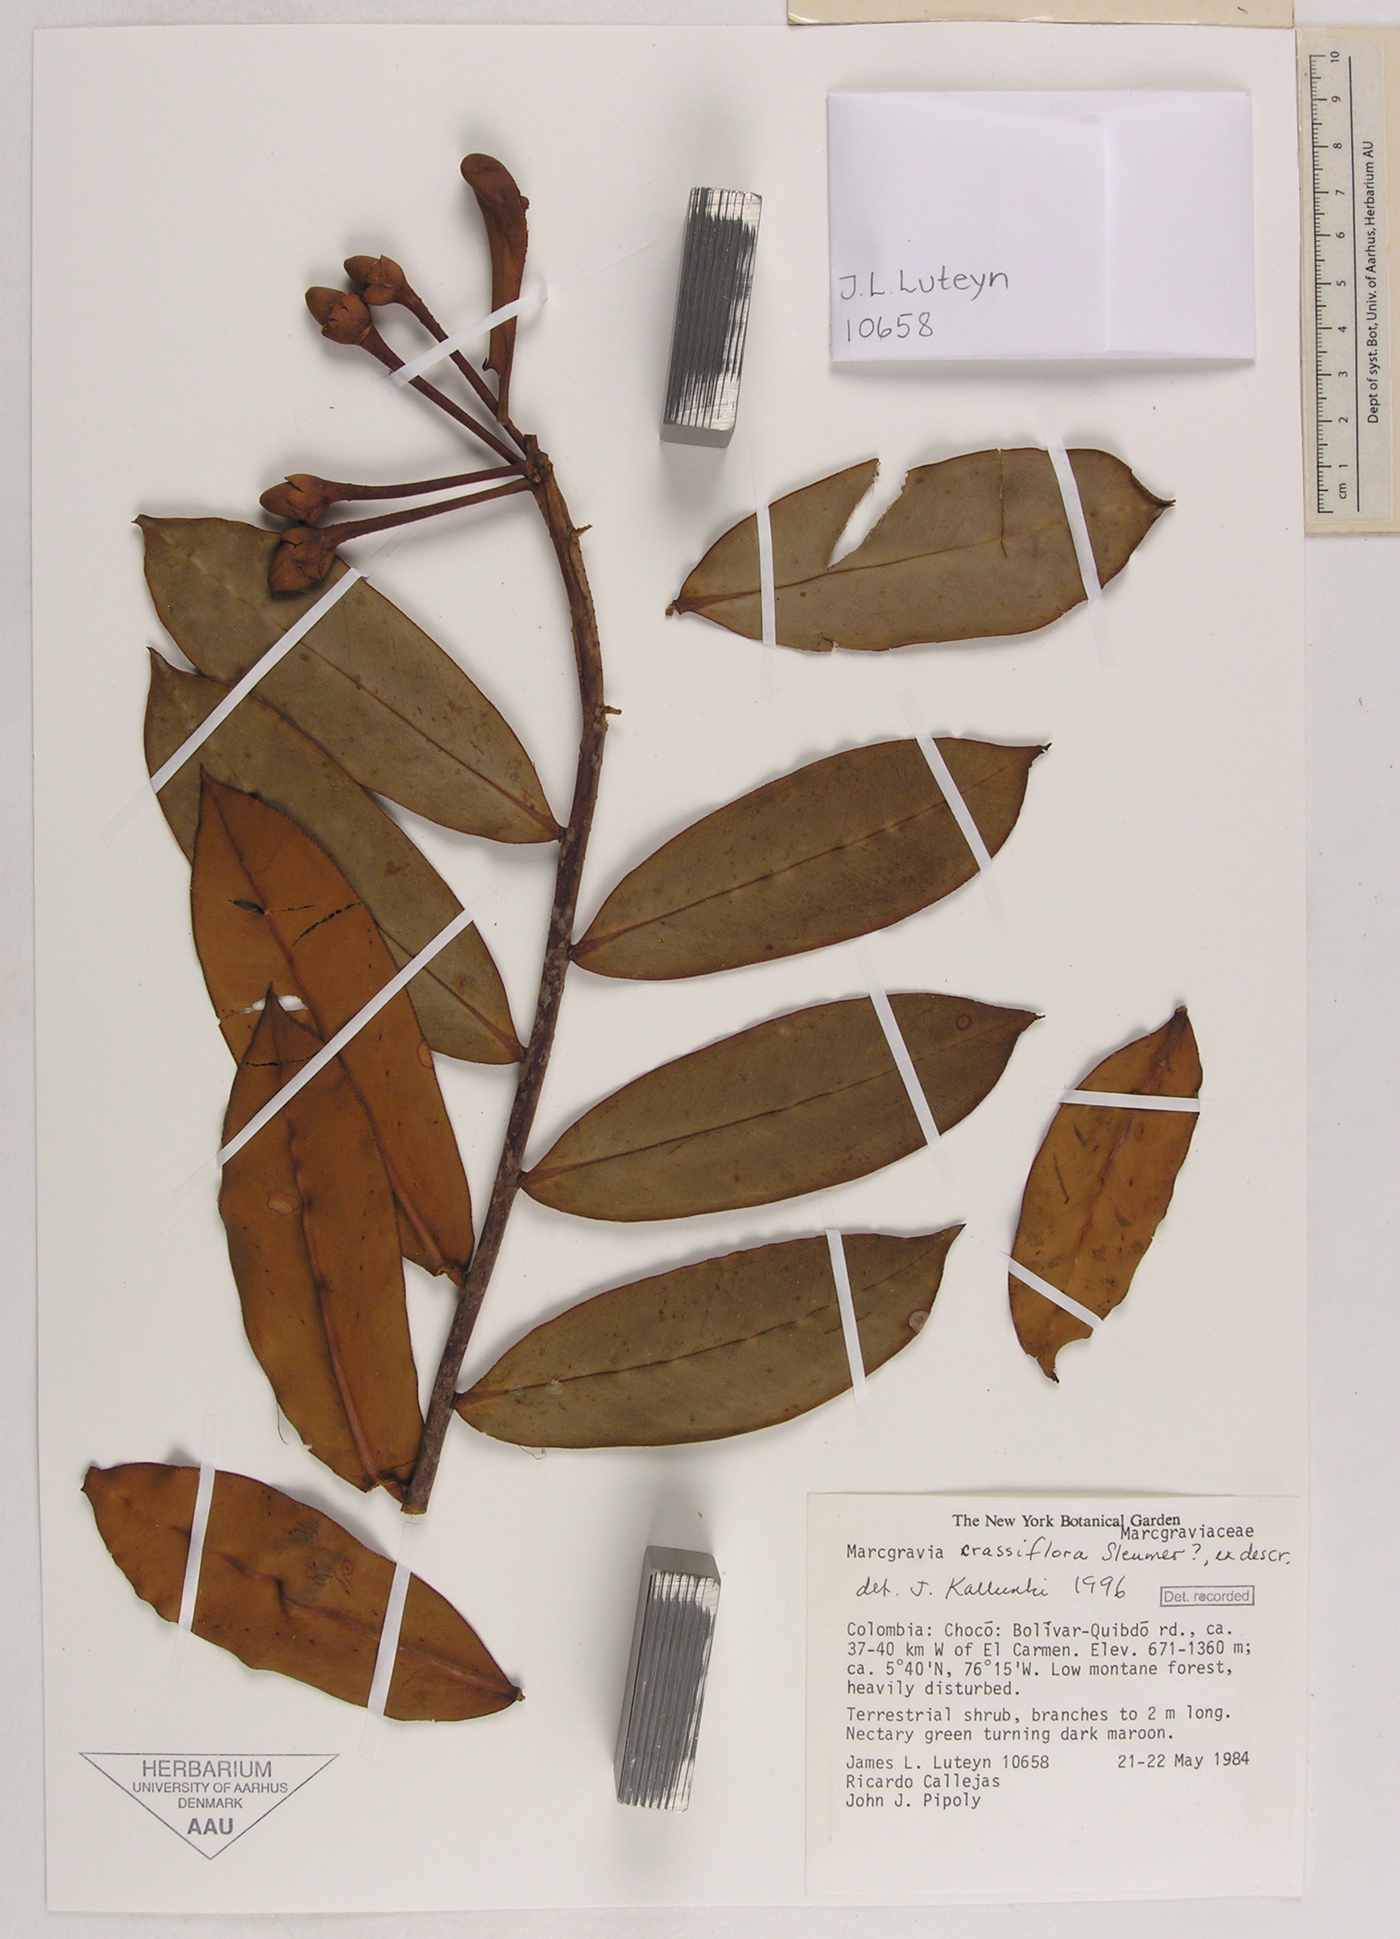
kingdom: Plantae
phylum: Tracheophyta
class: Magnoliopsida
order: Ericales
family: Marcgraviaceae
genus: Marcgravia
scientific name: Marcgravia crassiflora
